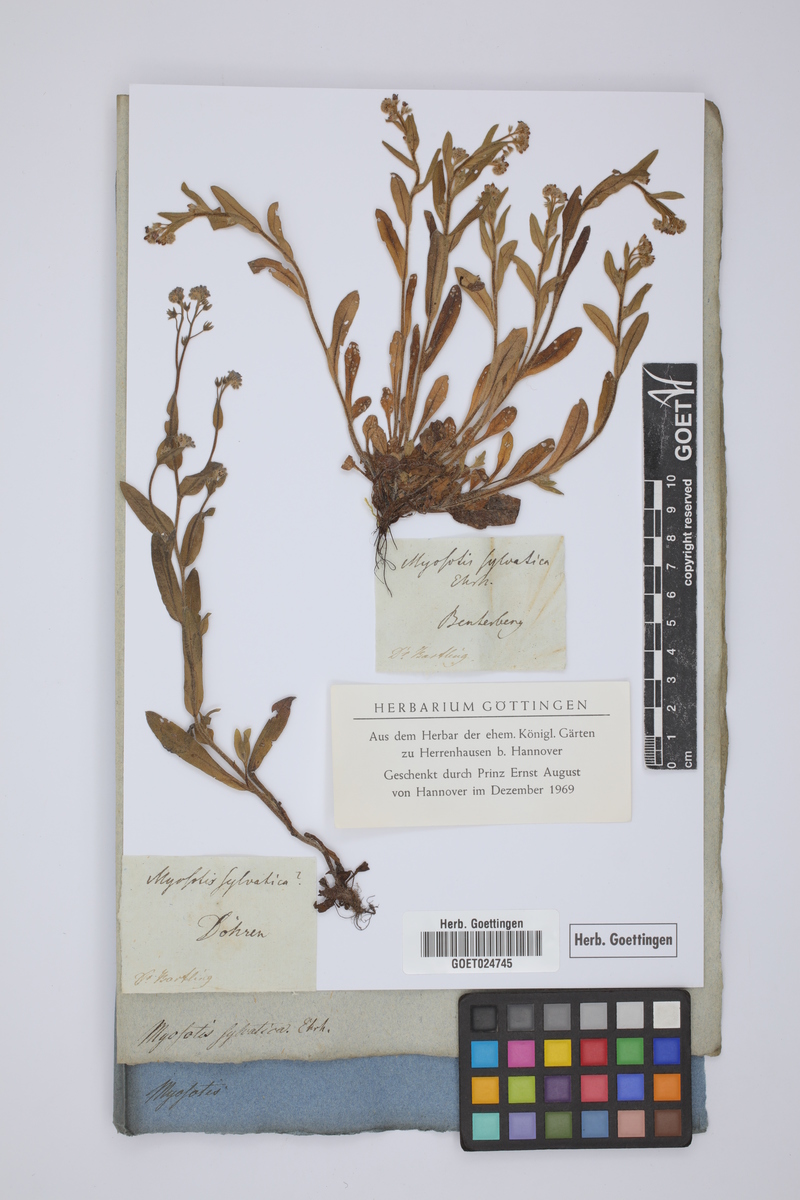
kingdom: Plantae
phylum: Tracheophyta
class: Magnoliopsida
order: Boraginales
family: Boraginaceae
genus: Myosotis
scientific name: Myosotis sylvatica
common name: Wood forget-me-not
